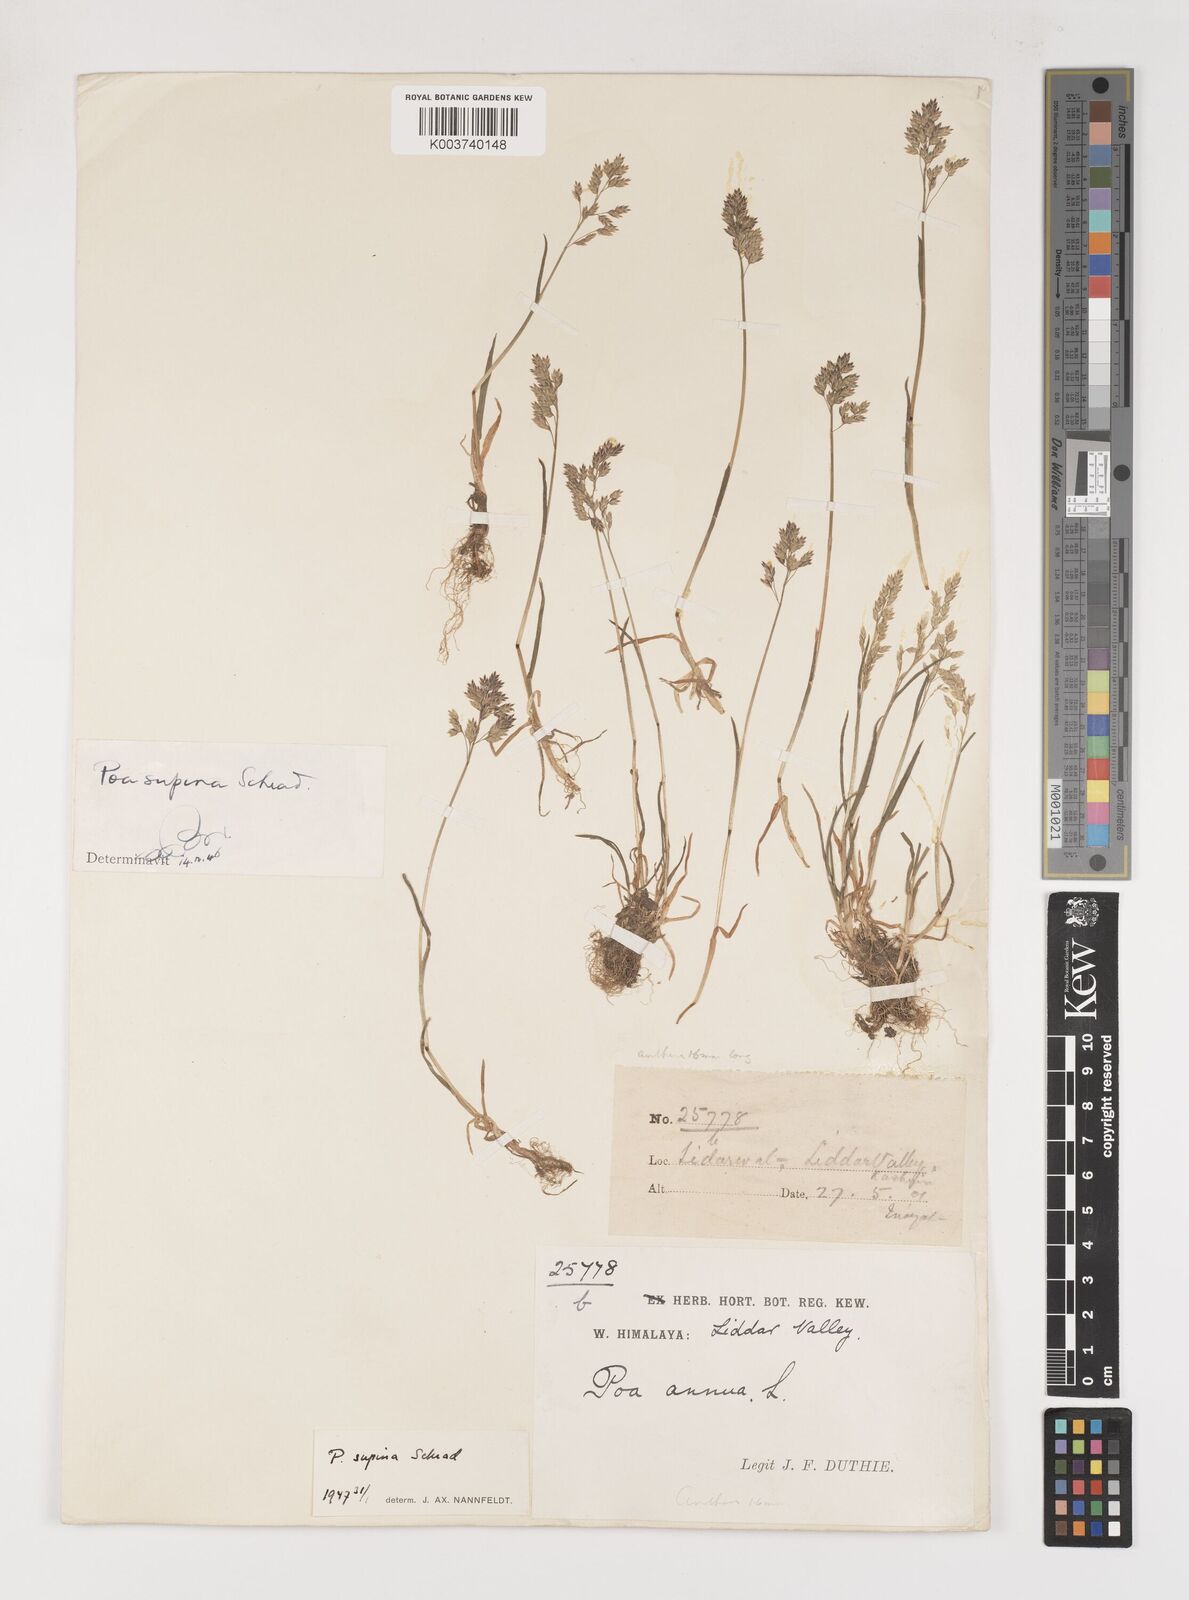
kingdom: Plantae
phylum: Tracheophyta
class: Liliopsida
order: Poales
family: Poaceae
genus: Poa
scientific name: Poa supina
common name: Supina bluegrass
